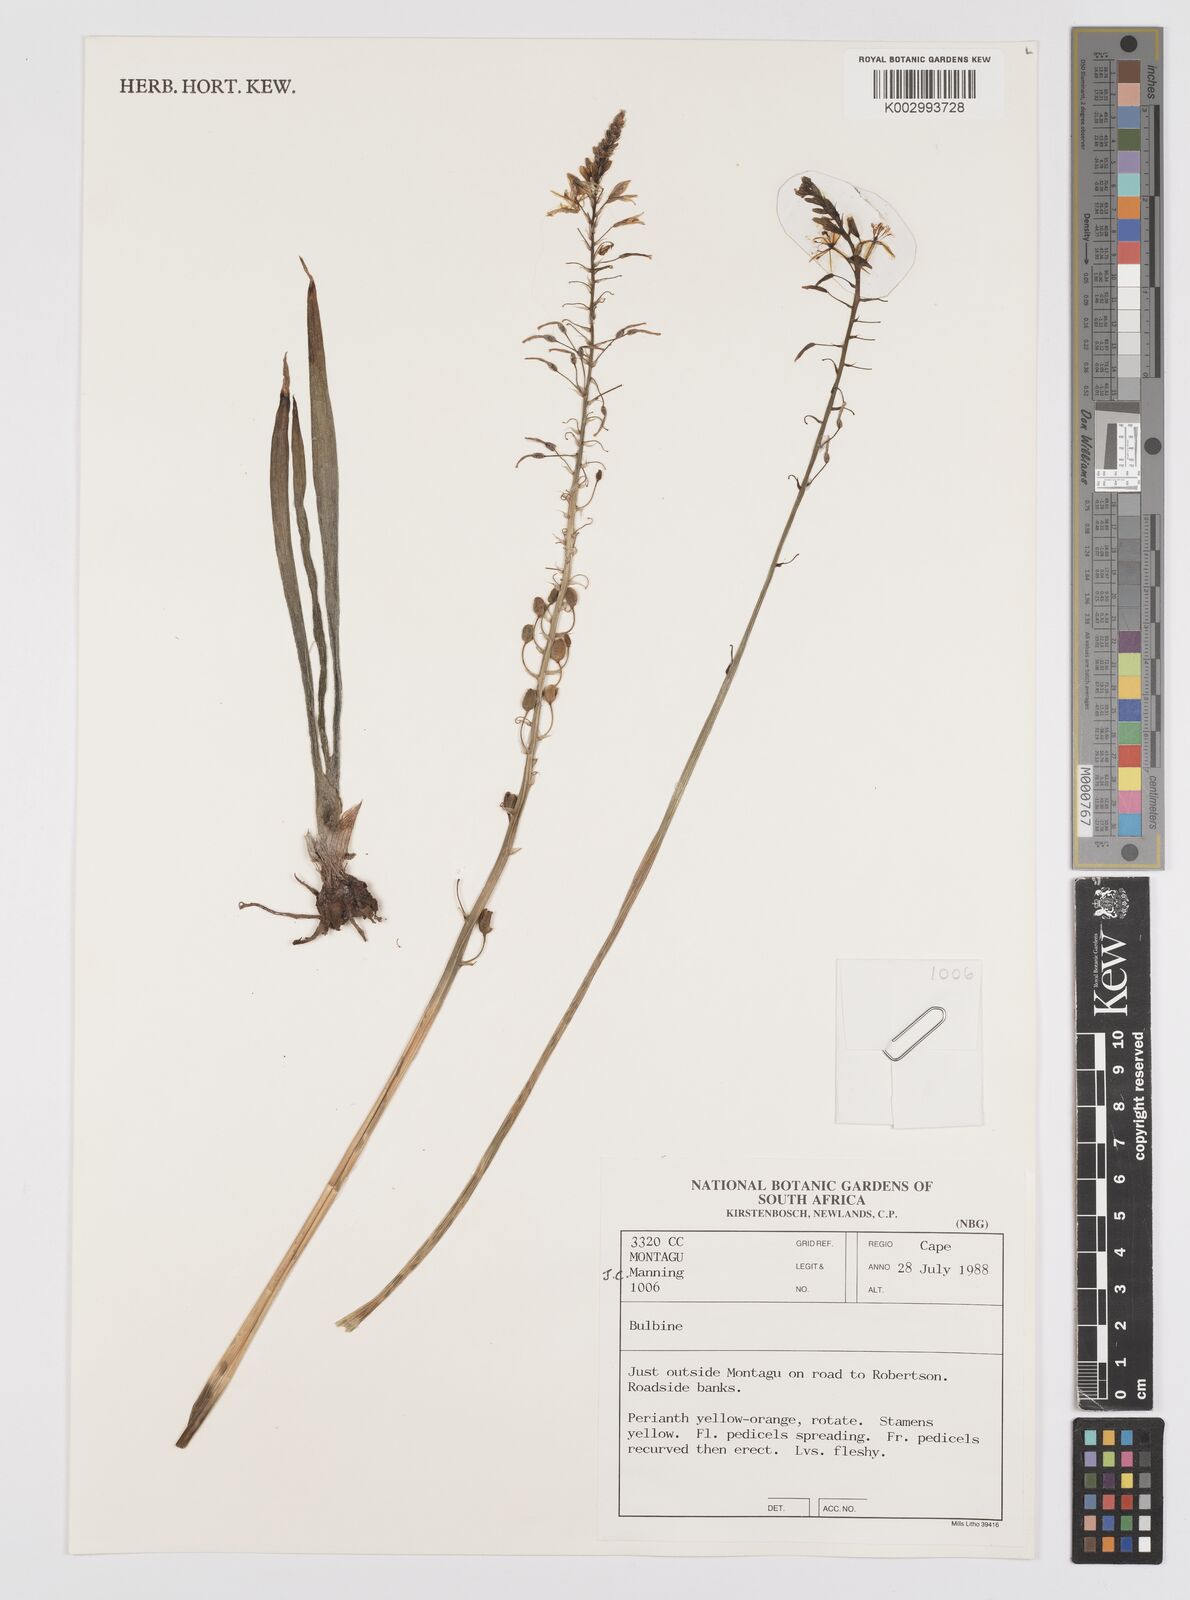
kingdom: Plantae
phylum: Tracheophyta
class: Liliopsida
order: Asparagales
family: Amaryllidaceae
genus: Crinum
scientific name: Crinum
